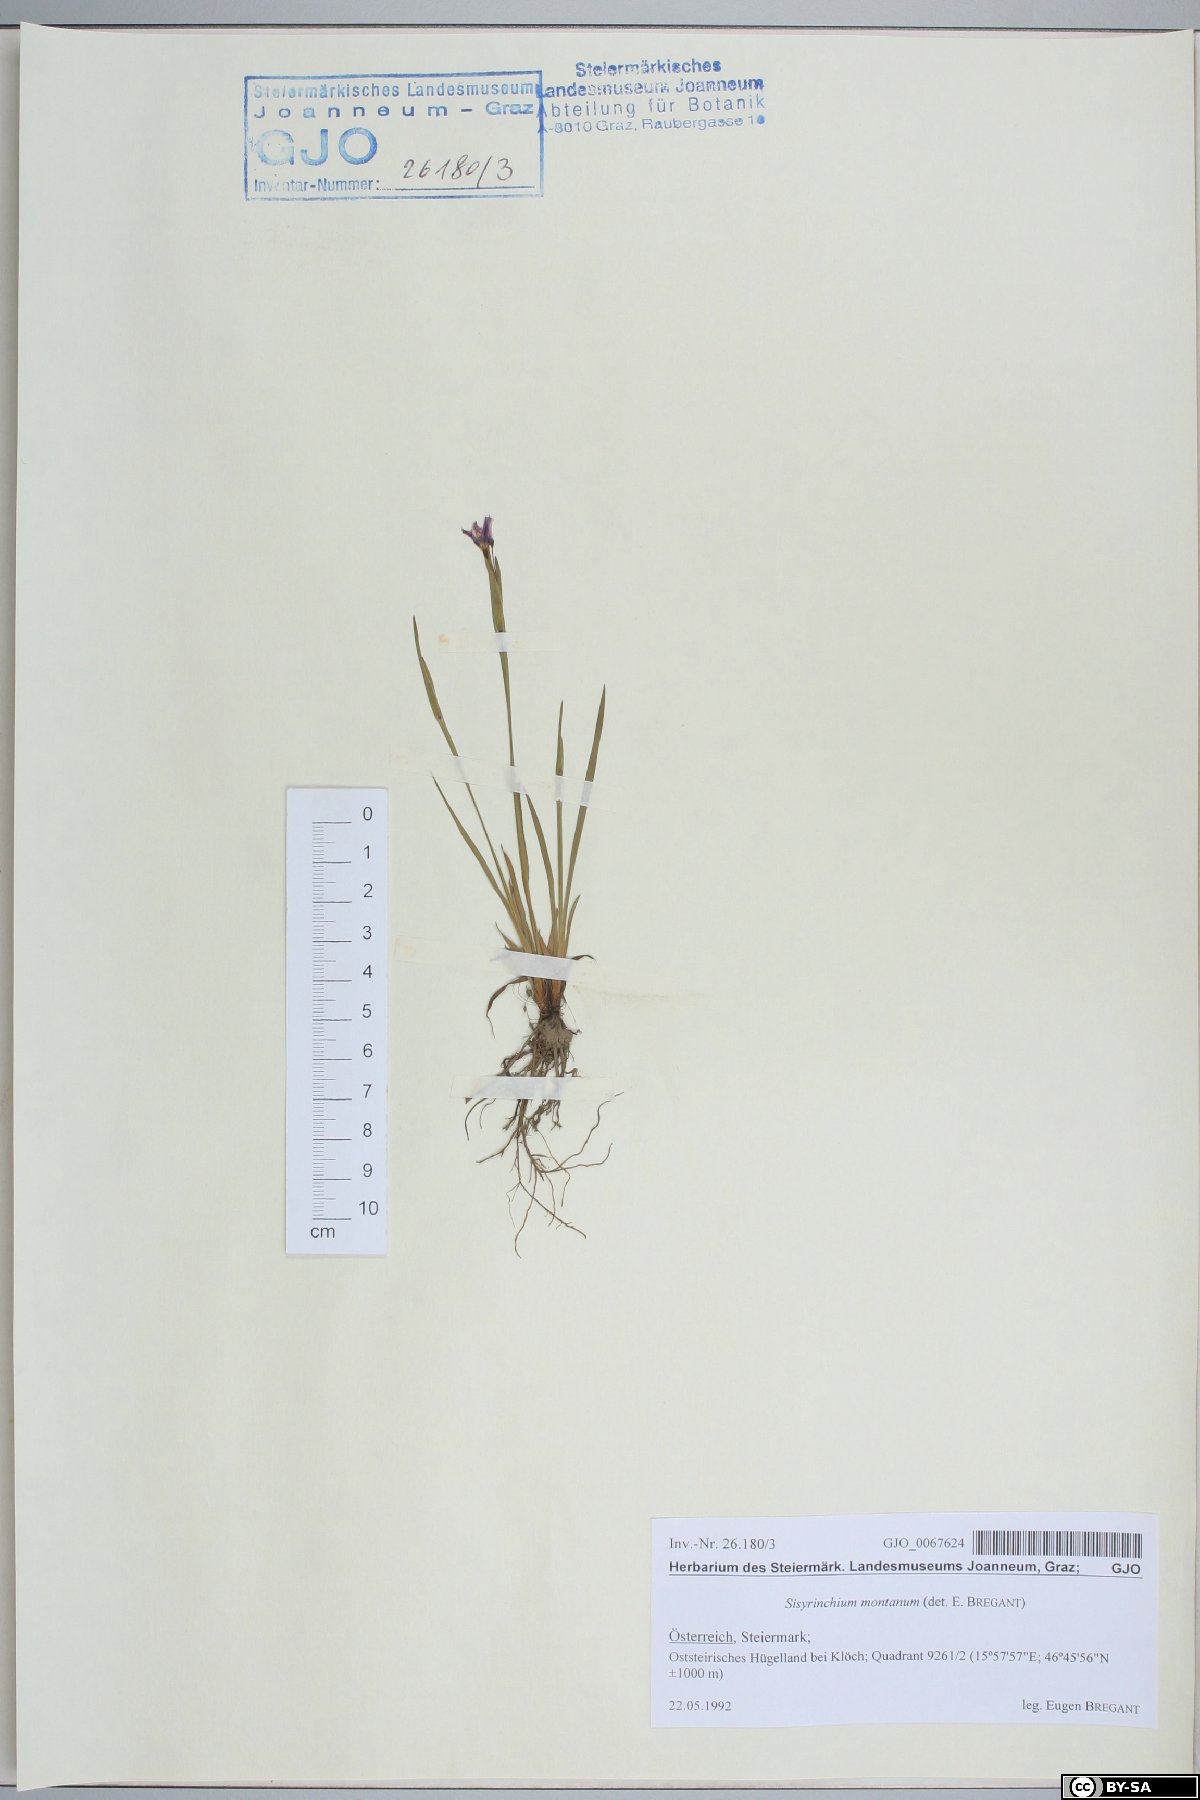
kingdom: Plantae
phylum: Tracheophyta
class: Liliopsida
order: Asparagales
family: Iridaceae
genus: Sisyrinchium
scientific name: Sisyrinchium montanum
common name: American blue-eyed-grass
